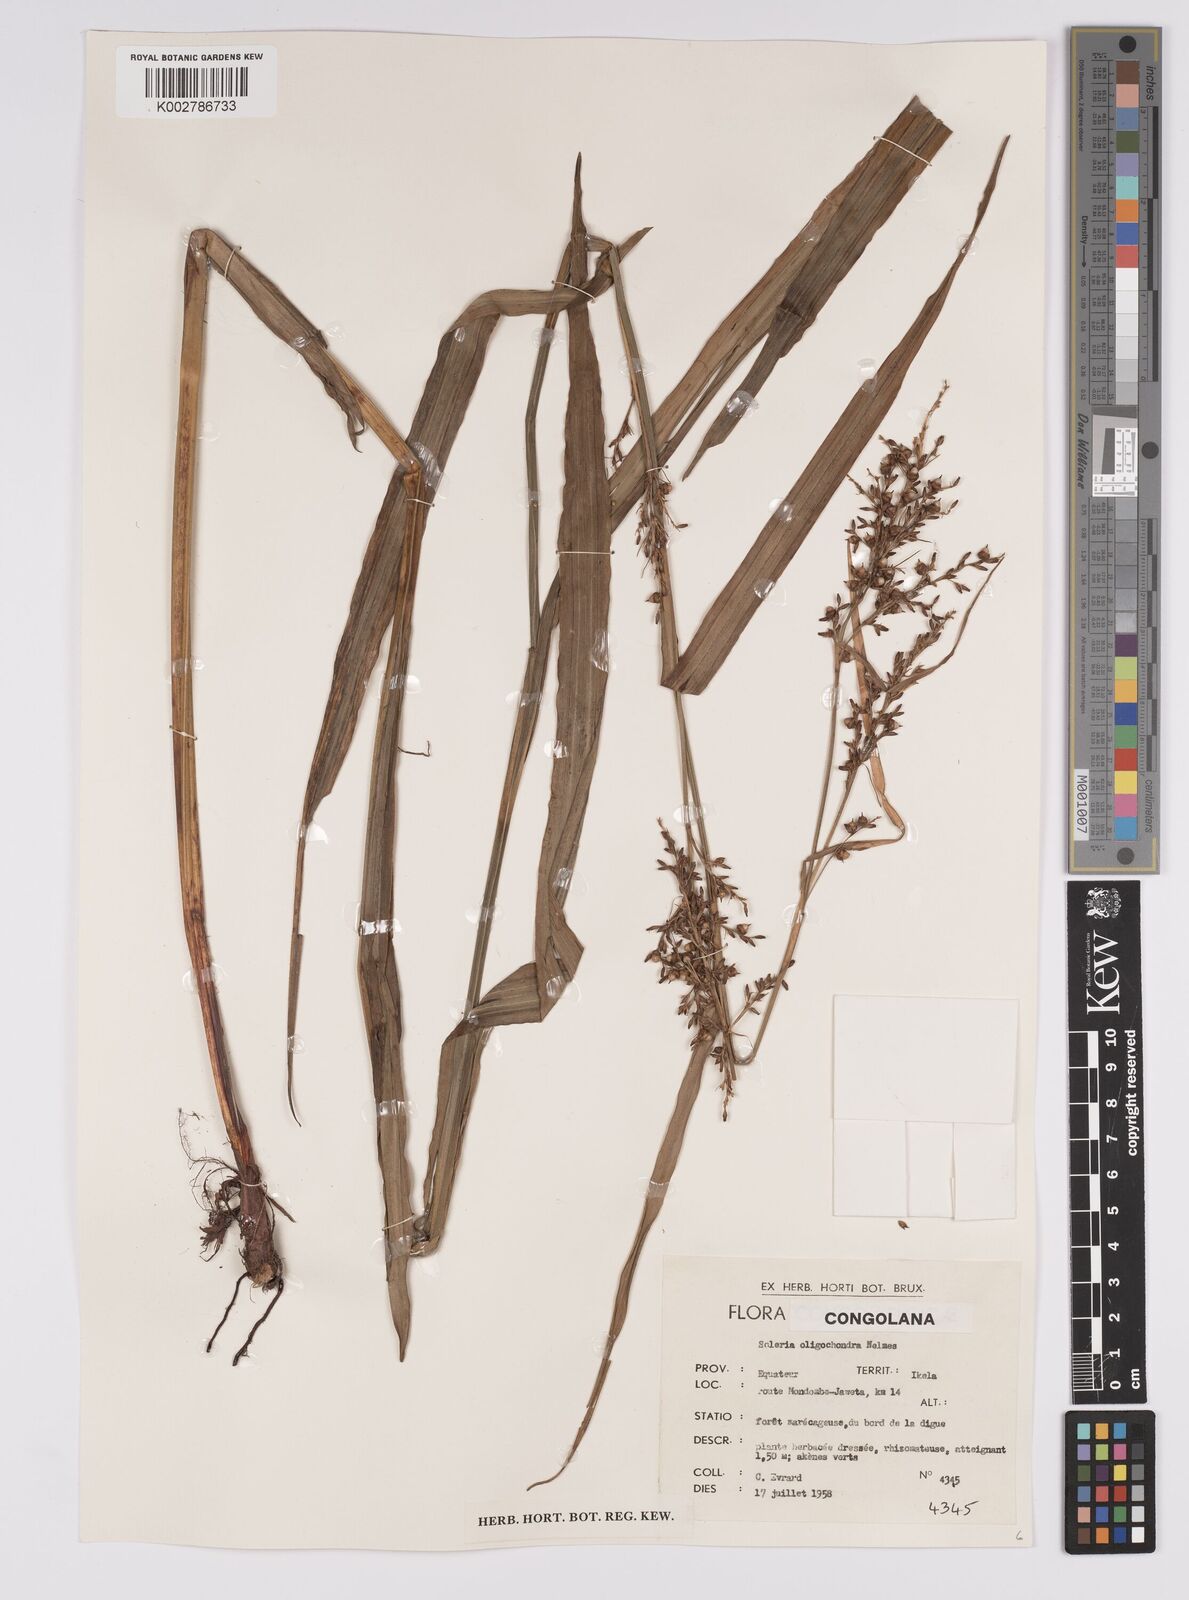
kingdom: Plantae
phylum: Tracheophyta
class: Liliopsida
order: Poales
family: Cyperaceae
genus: Scleria
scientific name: Scleria verrucosa
